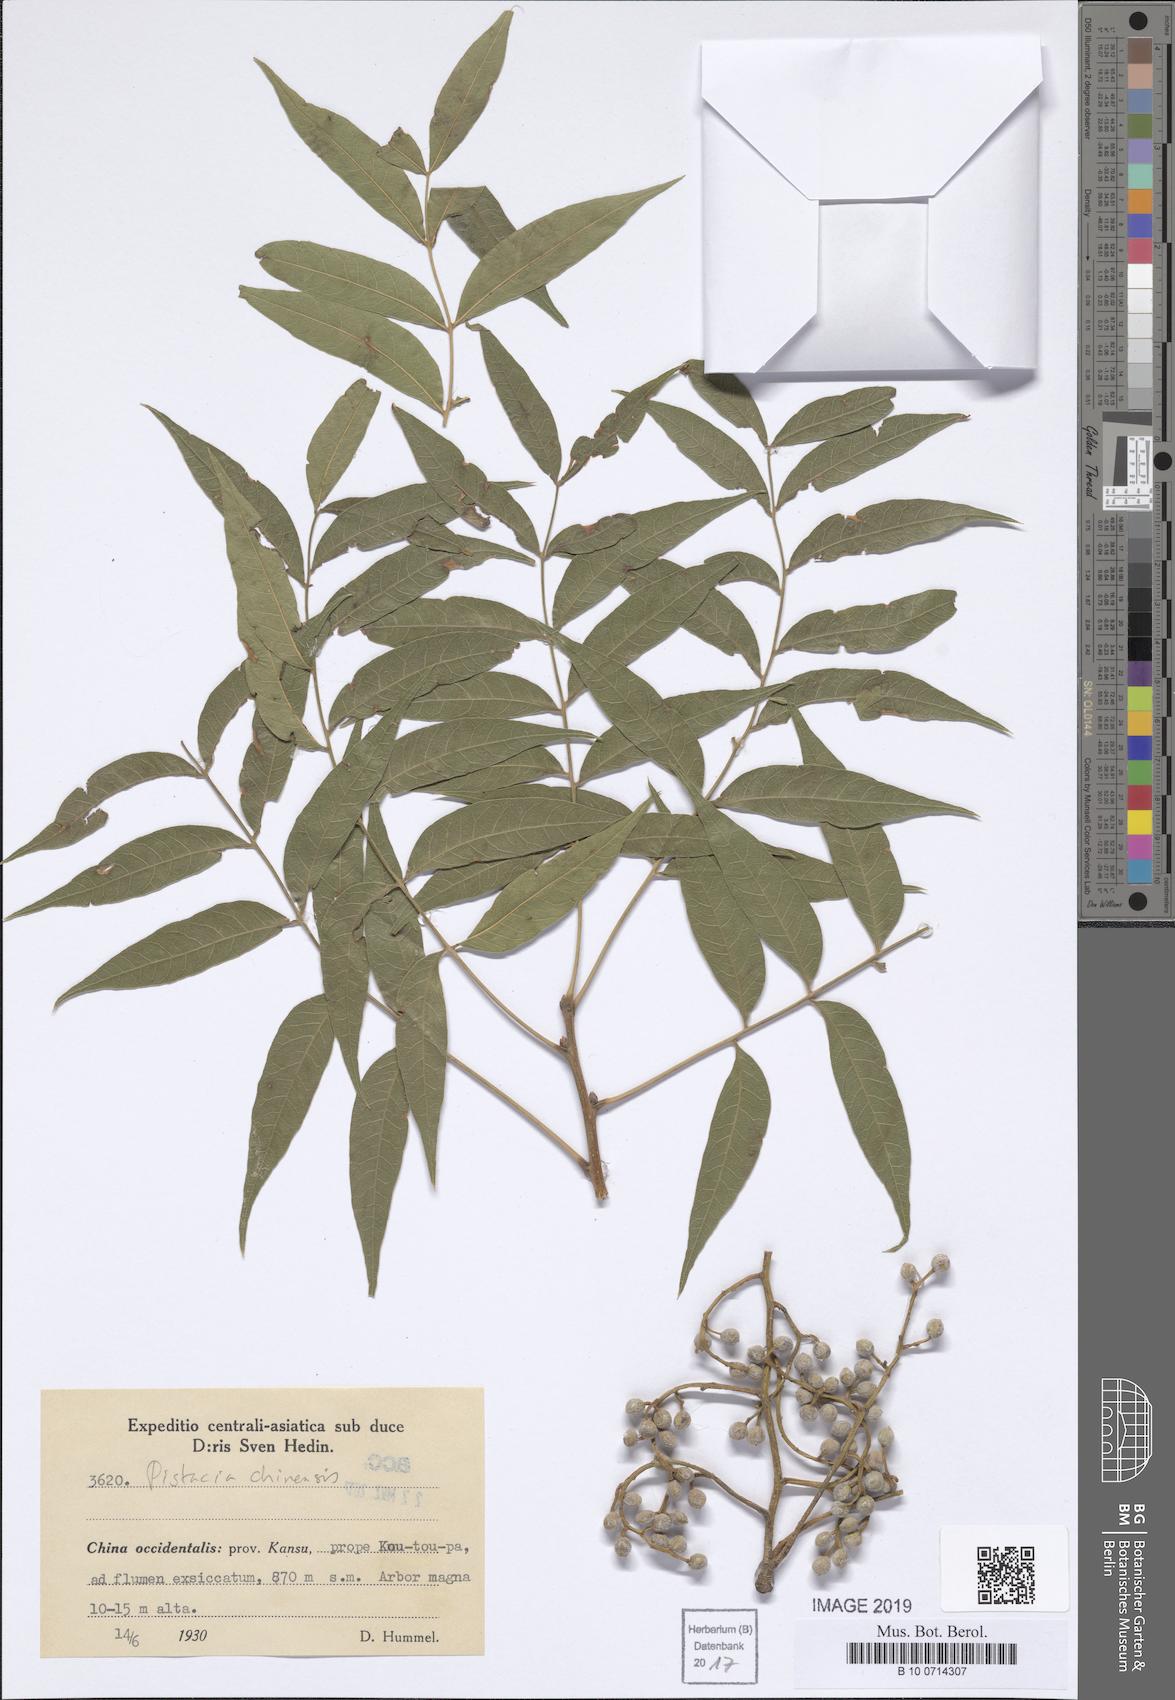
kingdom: Plantae
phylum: Tracheophyta
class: Magnoliopsida
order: Sapindales
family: Anacardiaceae
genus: Pistacia
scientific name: Pistacia chinensis
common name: Chinese pistache
